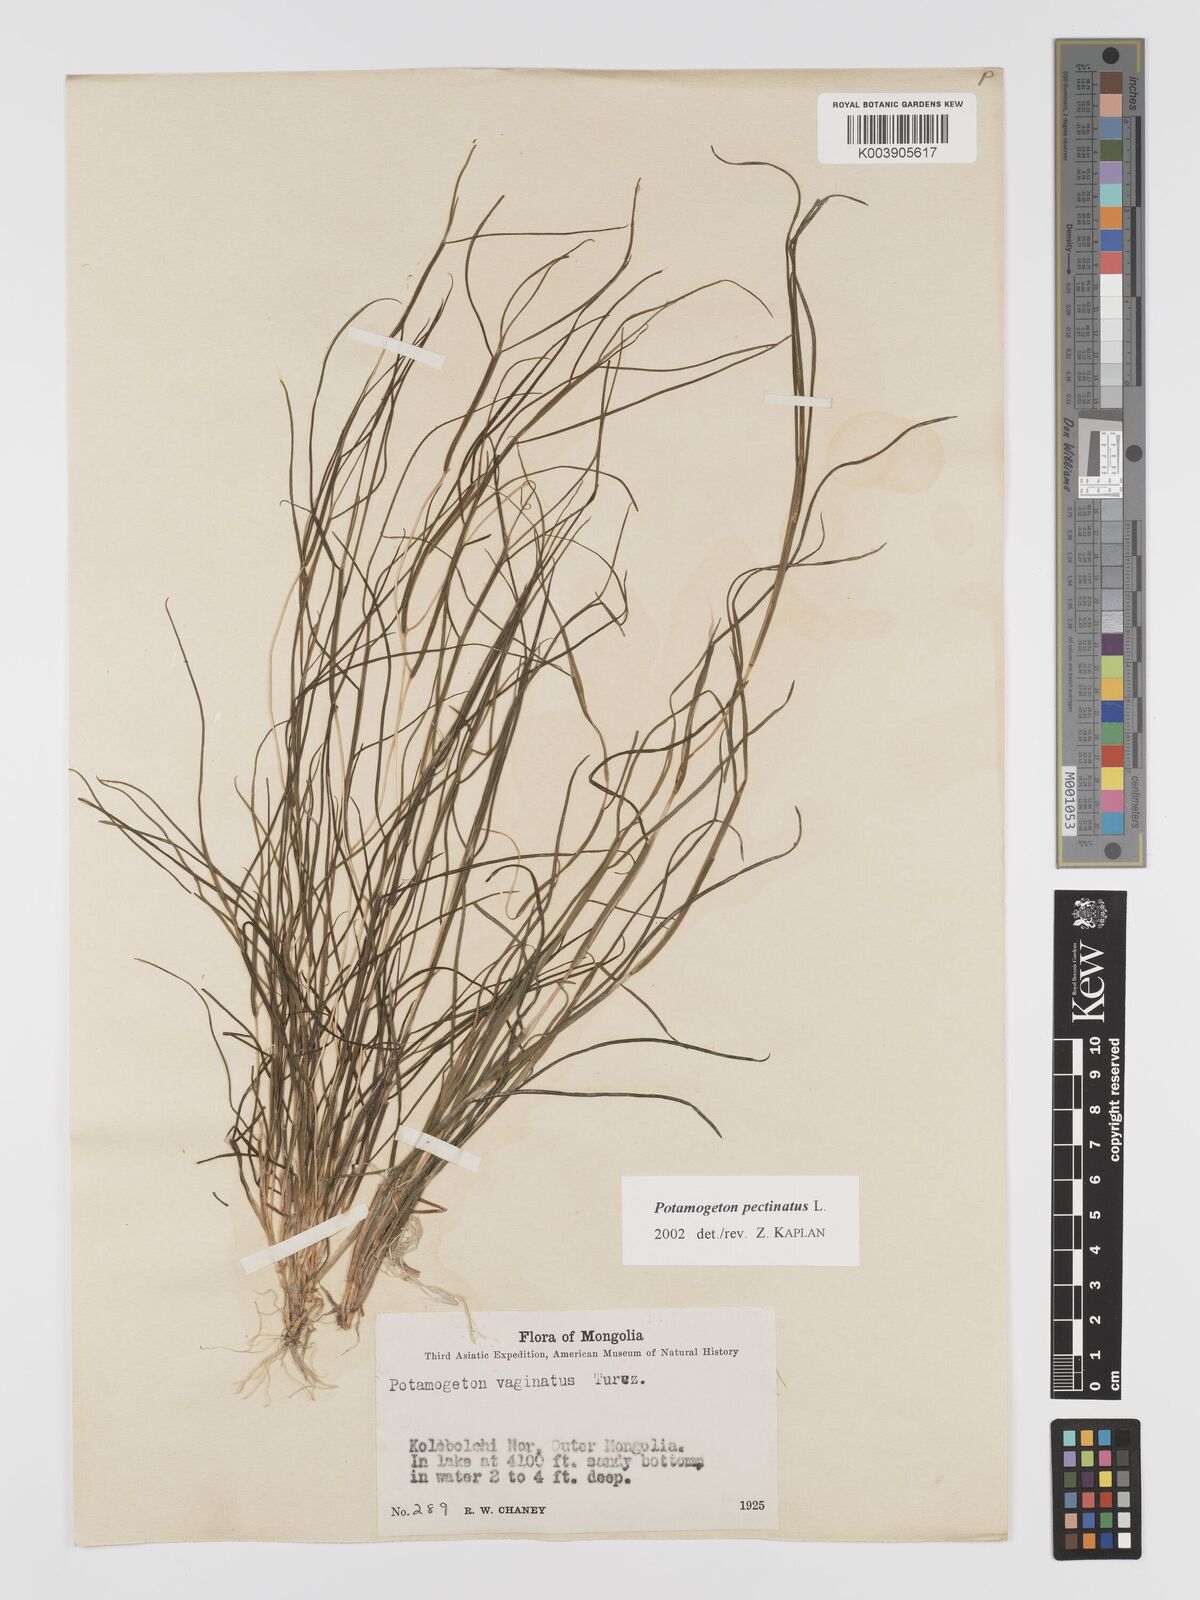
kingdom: Plantae
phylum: Tracheophyta
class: Liliopsida
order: Alismatales
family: Potamogetonaceae
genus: Stuckenia
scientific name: Stuckenia pectinata
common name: Sago pondweed
